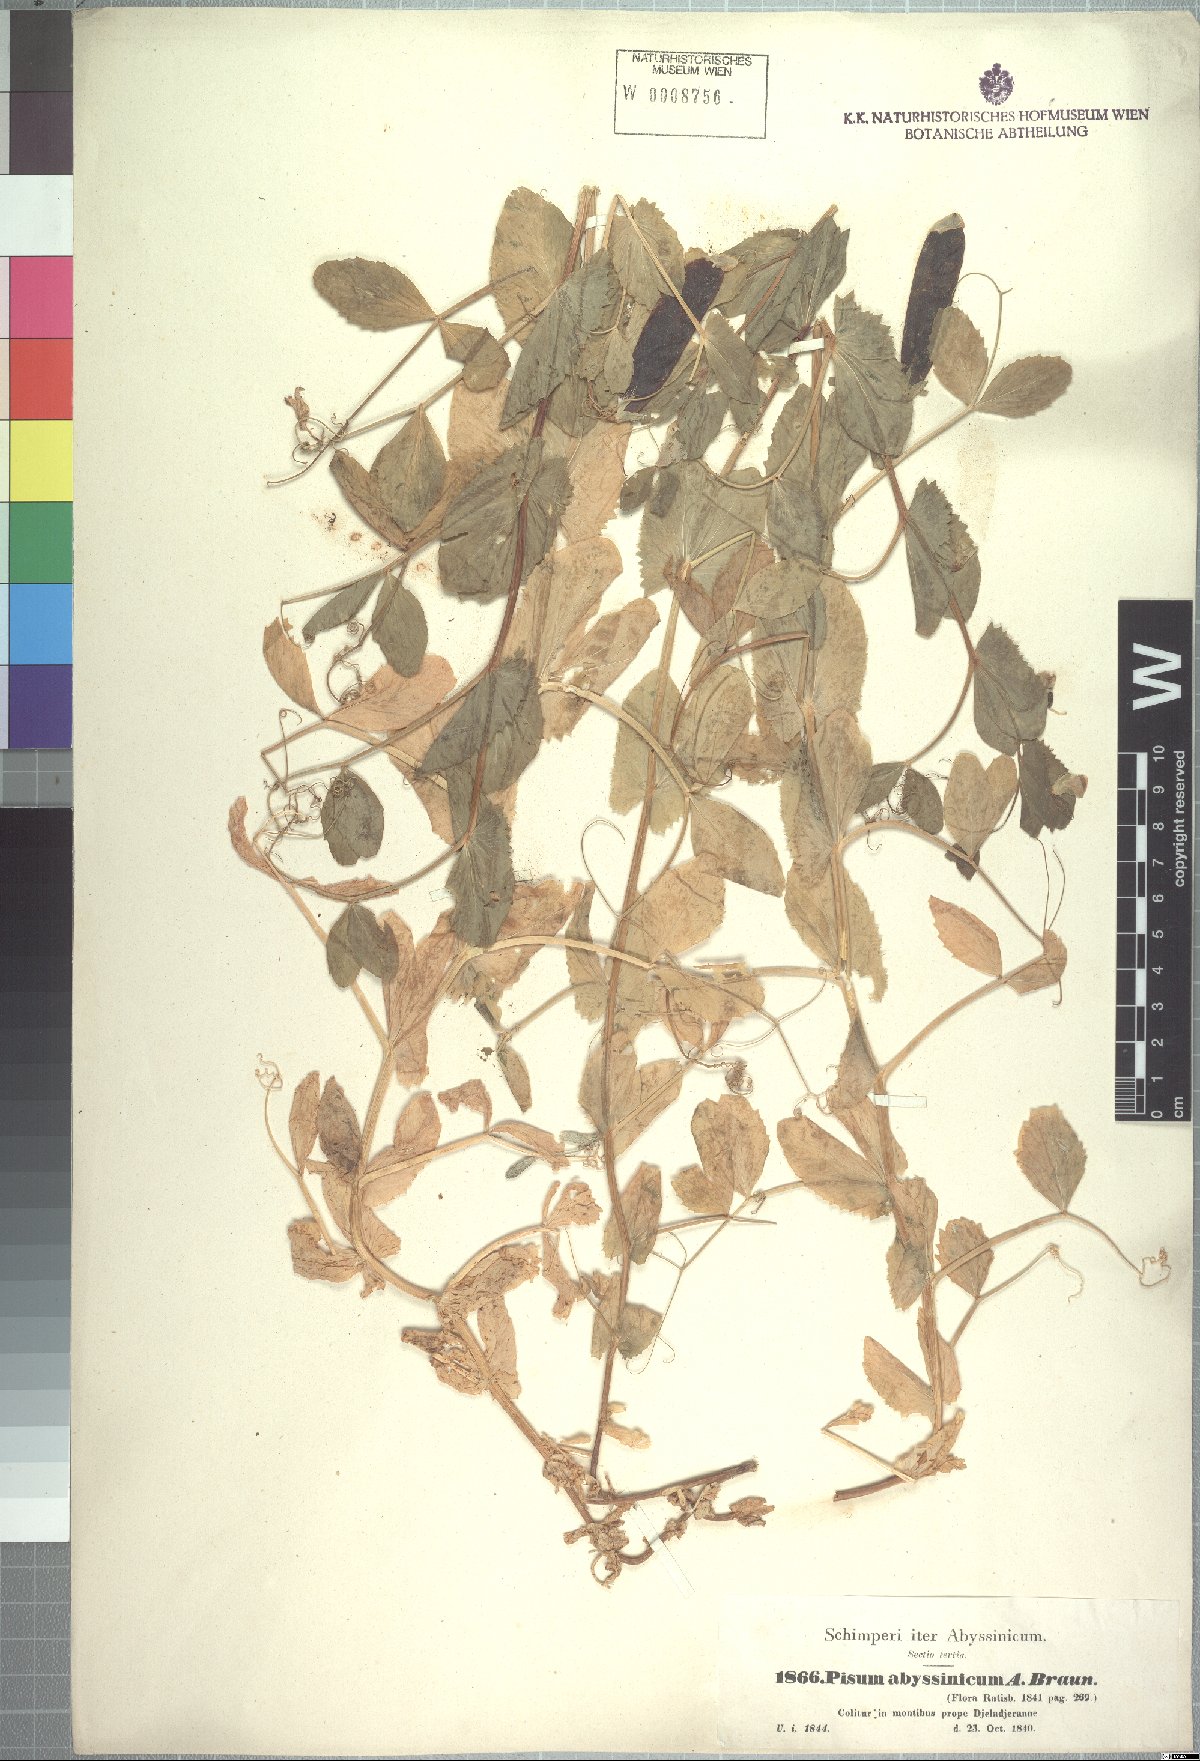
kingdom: Plantae
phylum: Tracheophyta
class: Magnoliopsida
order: Fabales
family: Fabaceae
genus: Lathyrus
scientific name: Lathyrus oleraceus
